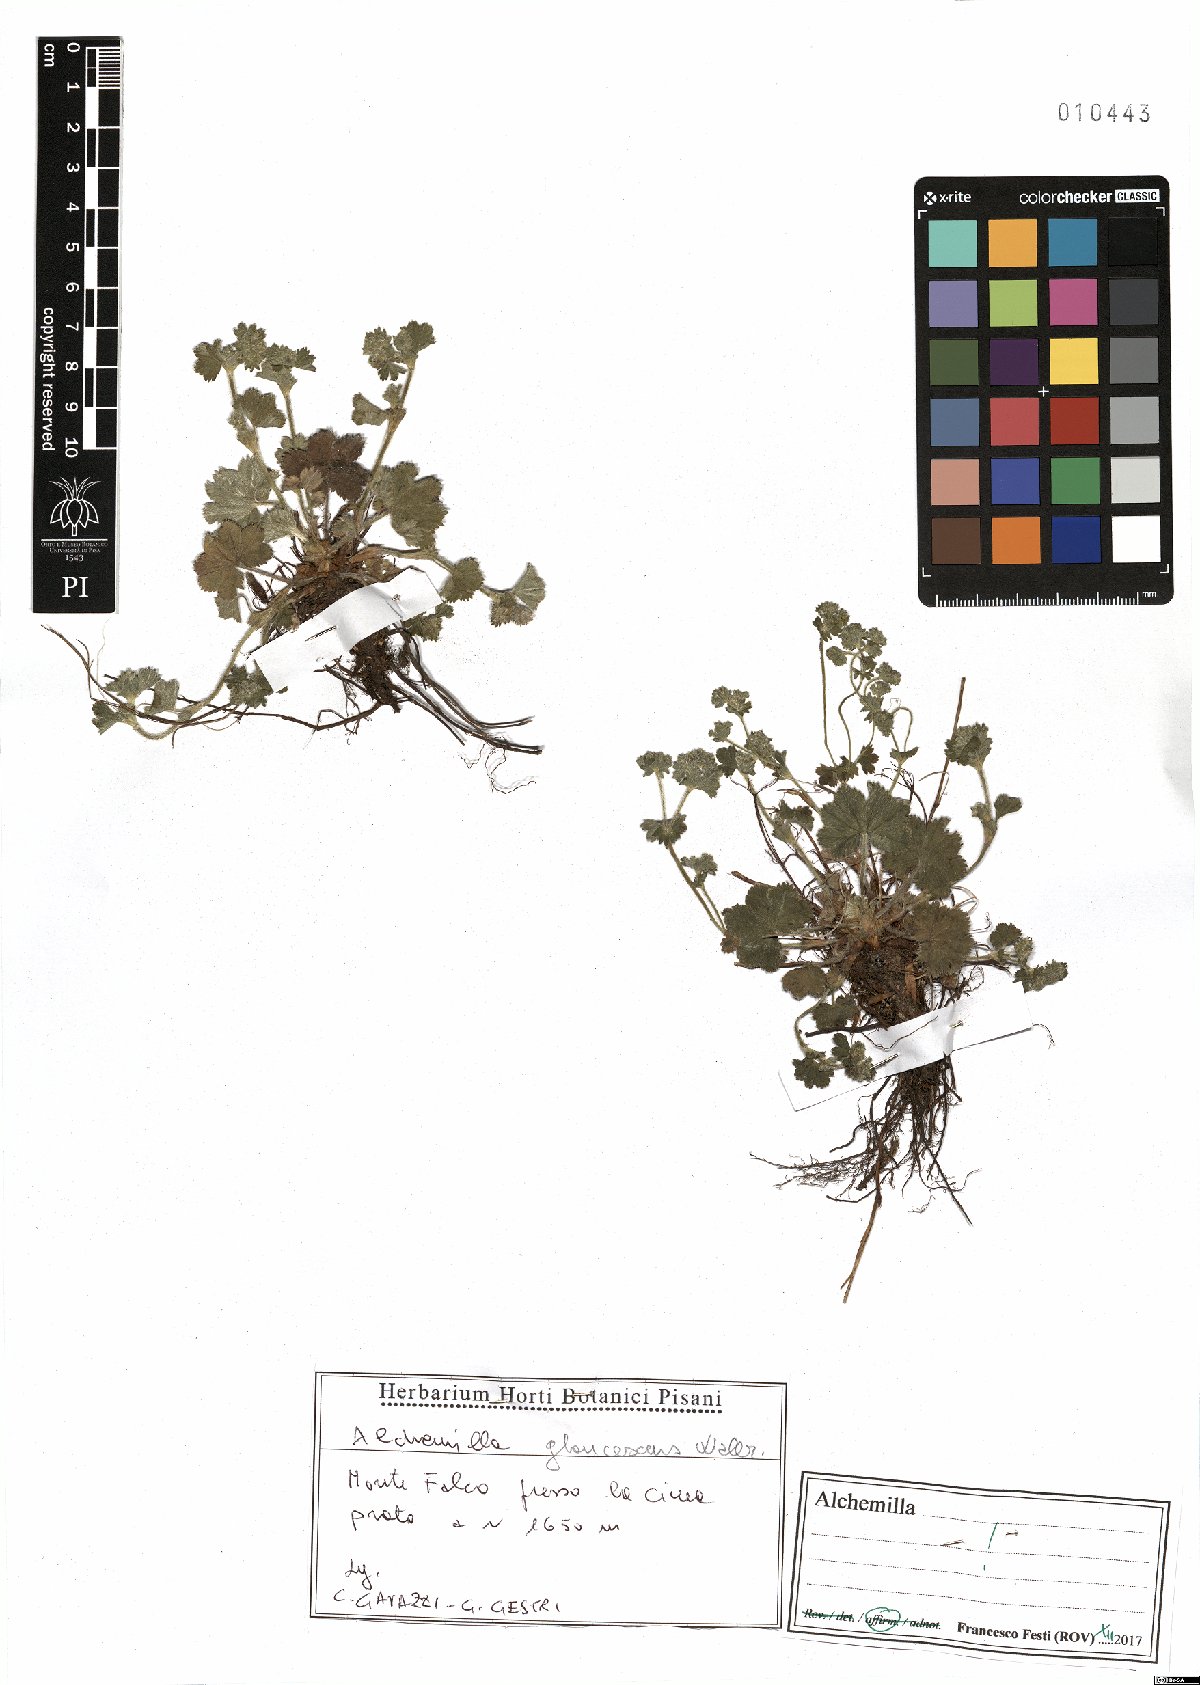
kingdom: Plantae
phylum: Tracheophyta
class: Magnoliopsida
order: Rosales
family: Rosaceae
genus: Alchemilla
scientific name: Alchemilla glaucescens
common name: Silky lady's mantle
